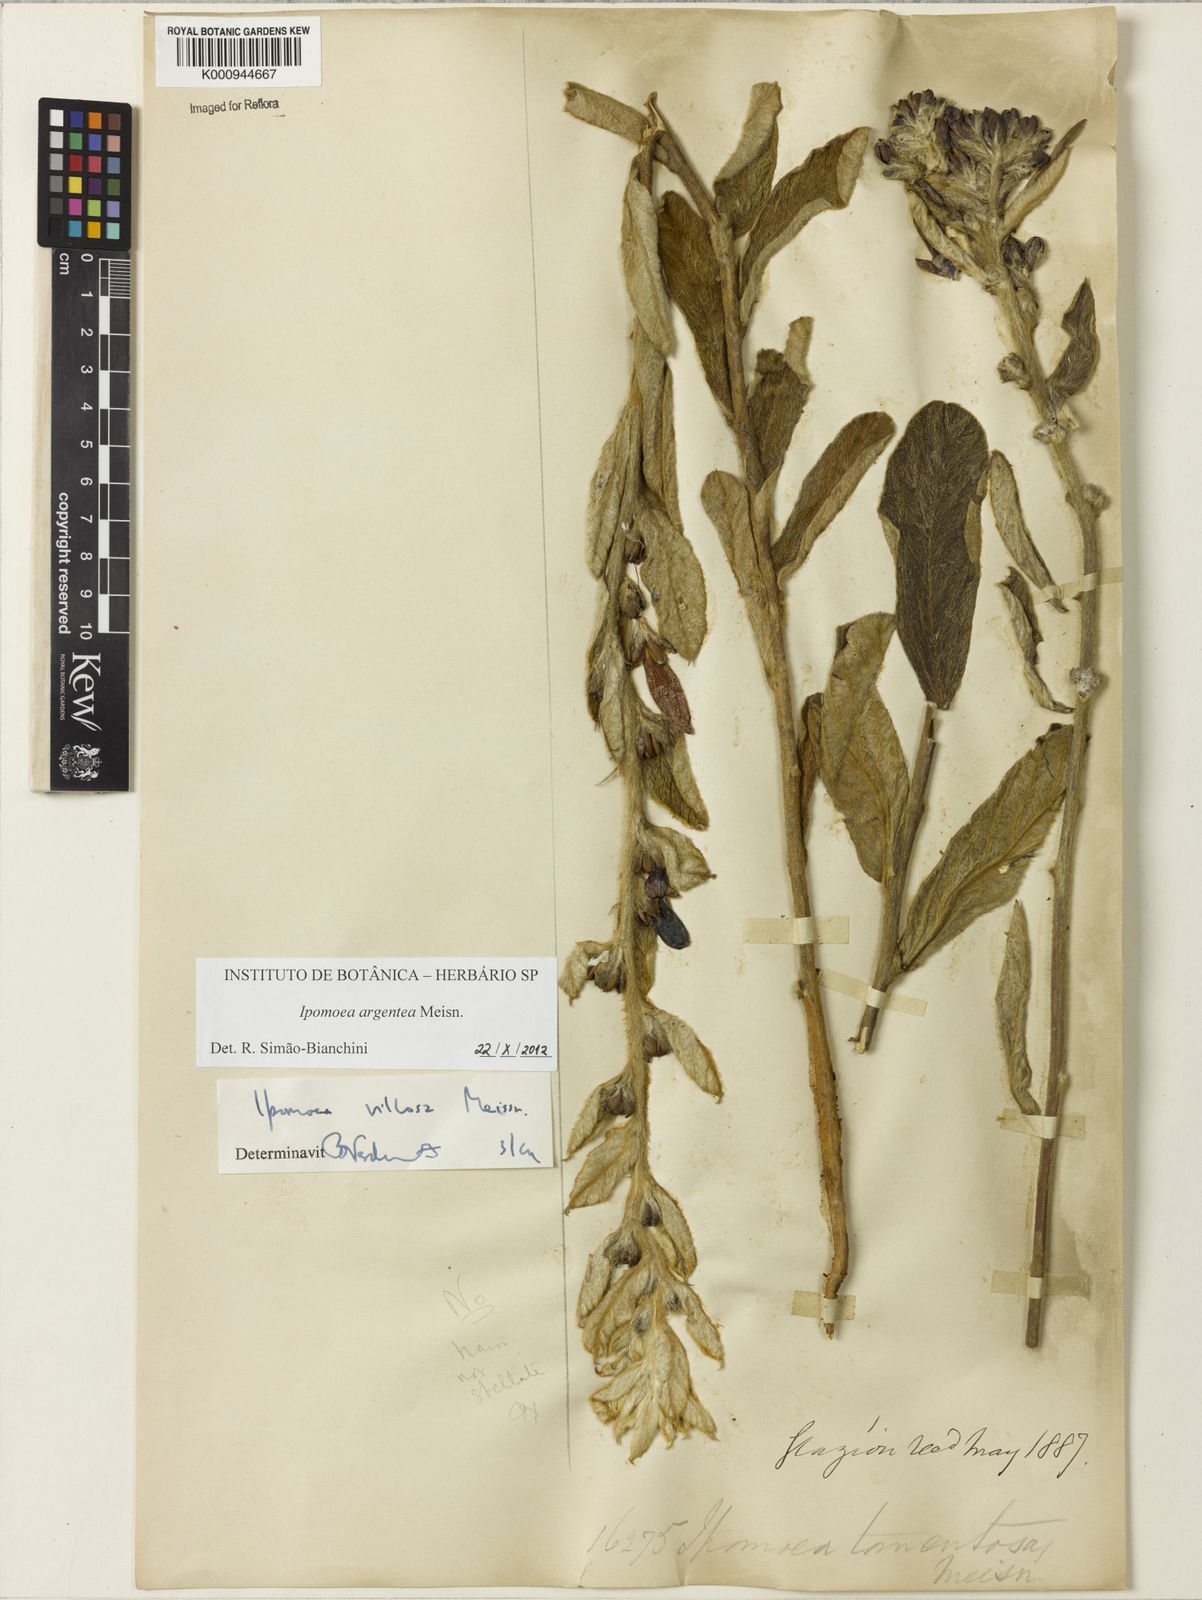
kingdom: Plantae
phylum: Tracheophyta
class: Magnoliopsida
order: Solanales
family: Convolvulaceae
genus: Ipomoea
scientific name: Ipomoea purpurea
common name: Common morning-glory
